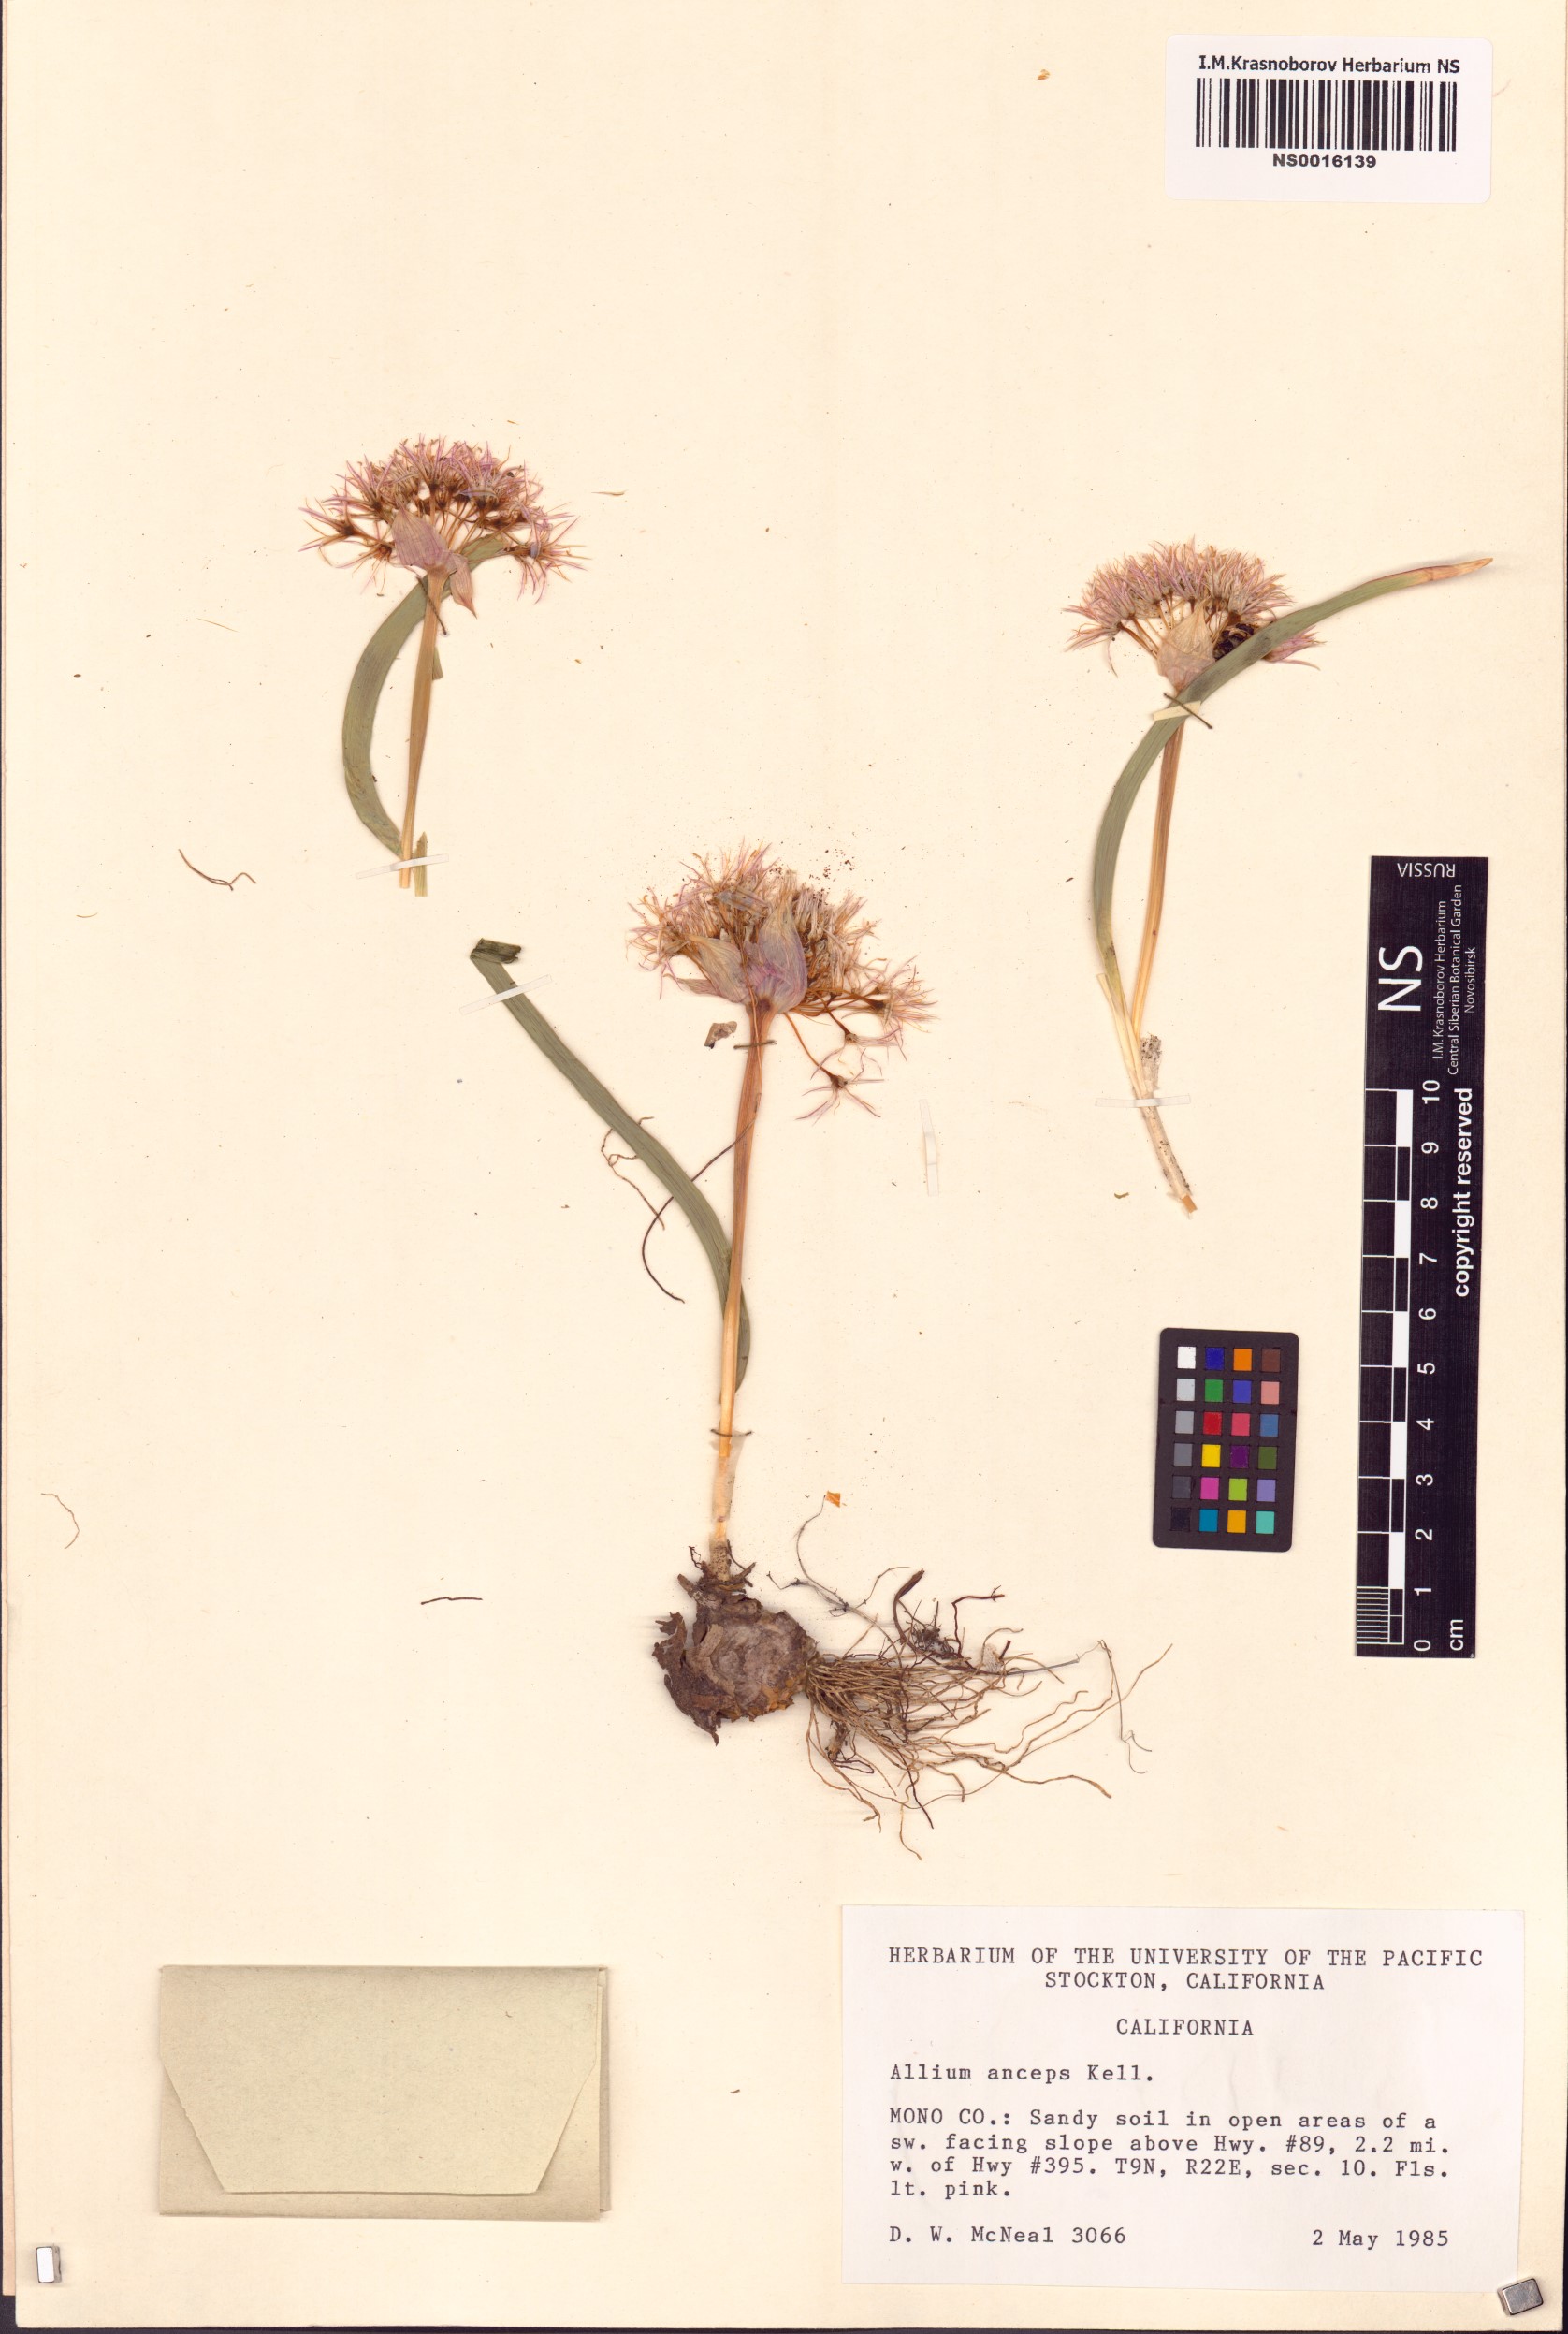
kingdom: Plantae
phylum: Tracheophyta
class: Liliopsida
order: Asparagales
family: Amaryllidaceae
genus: Allium
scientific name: Allium anceps
